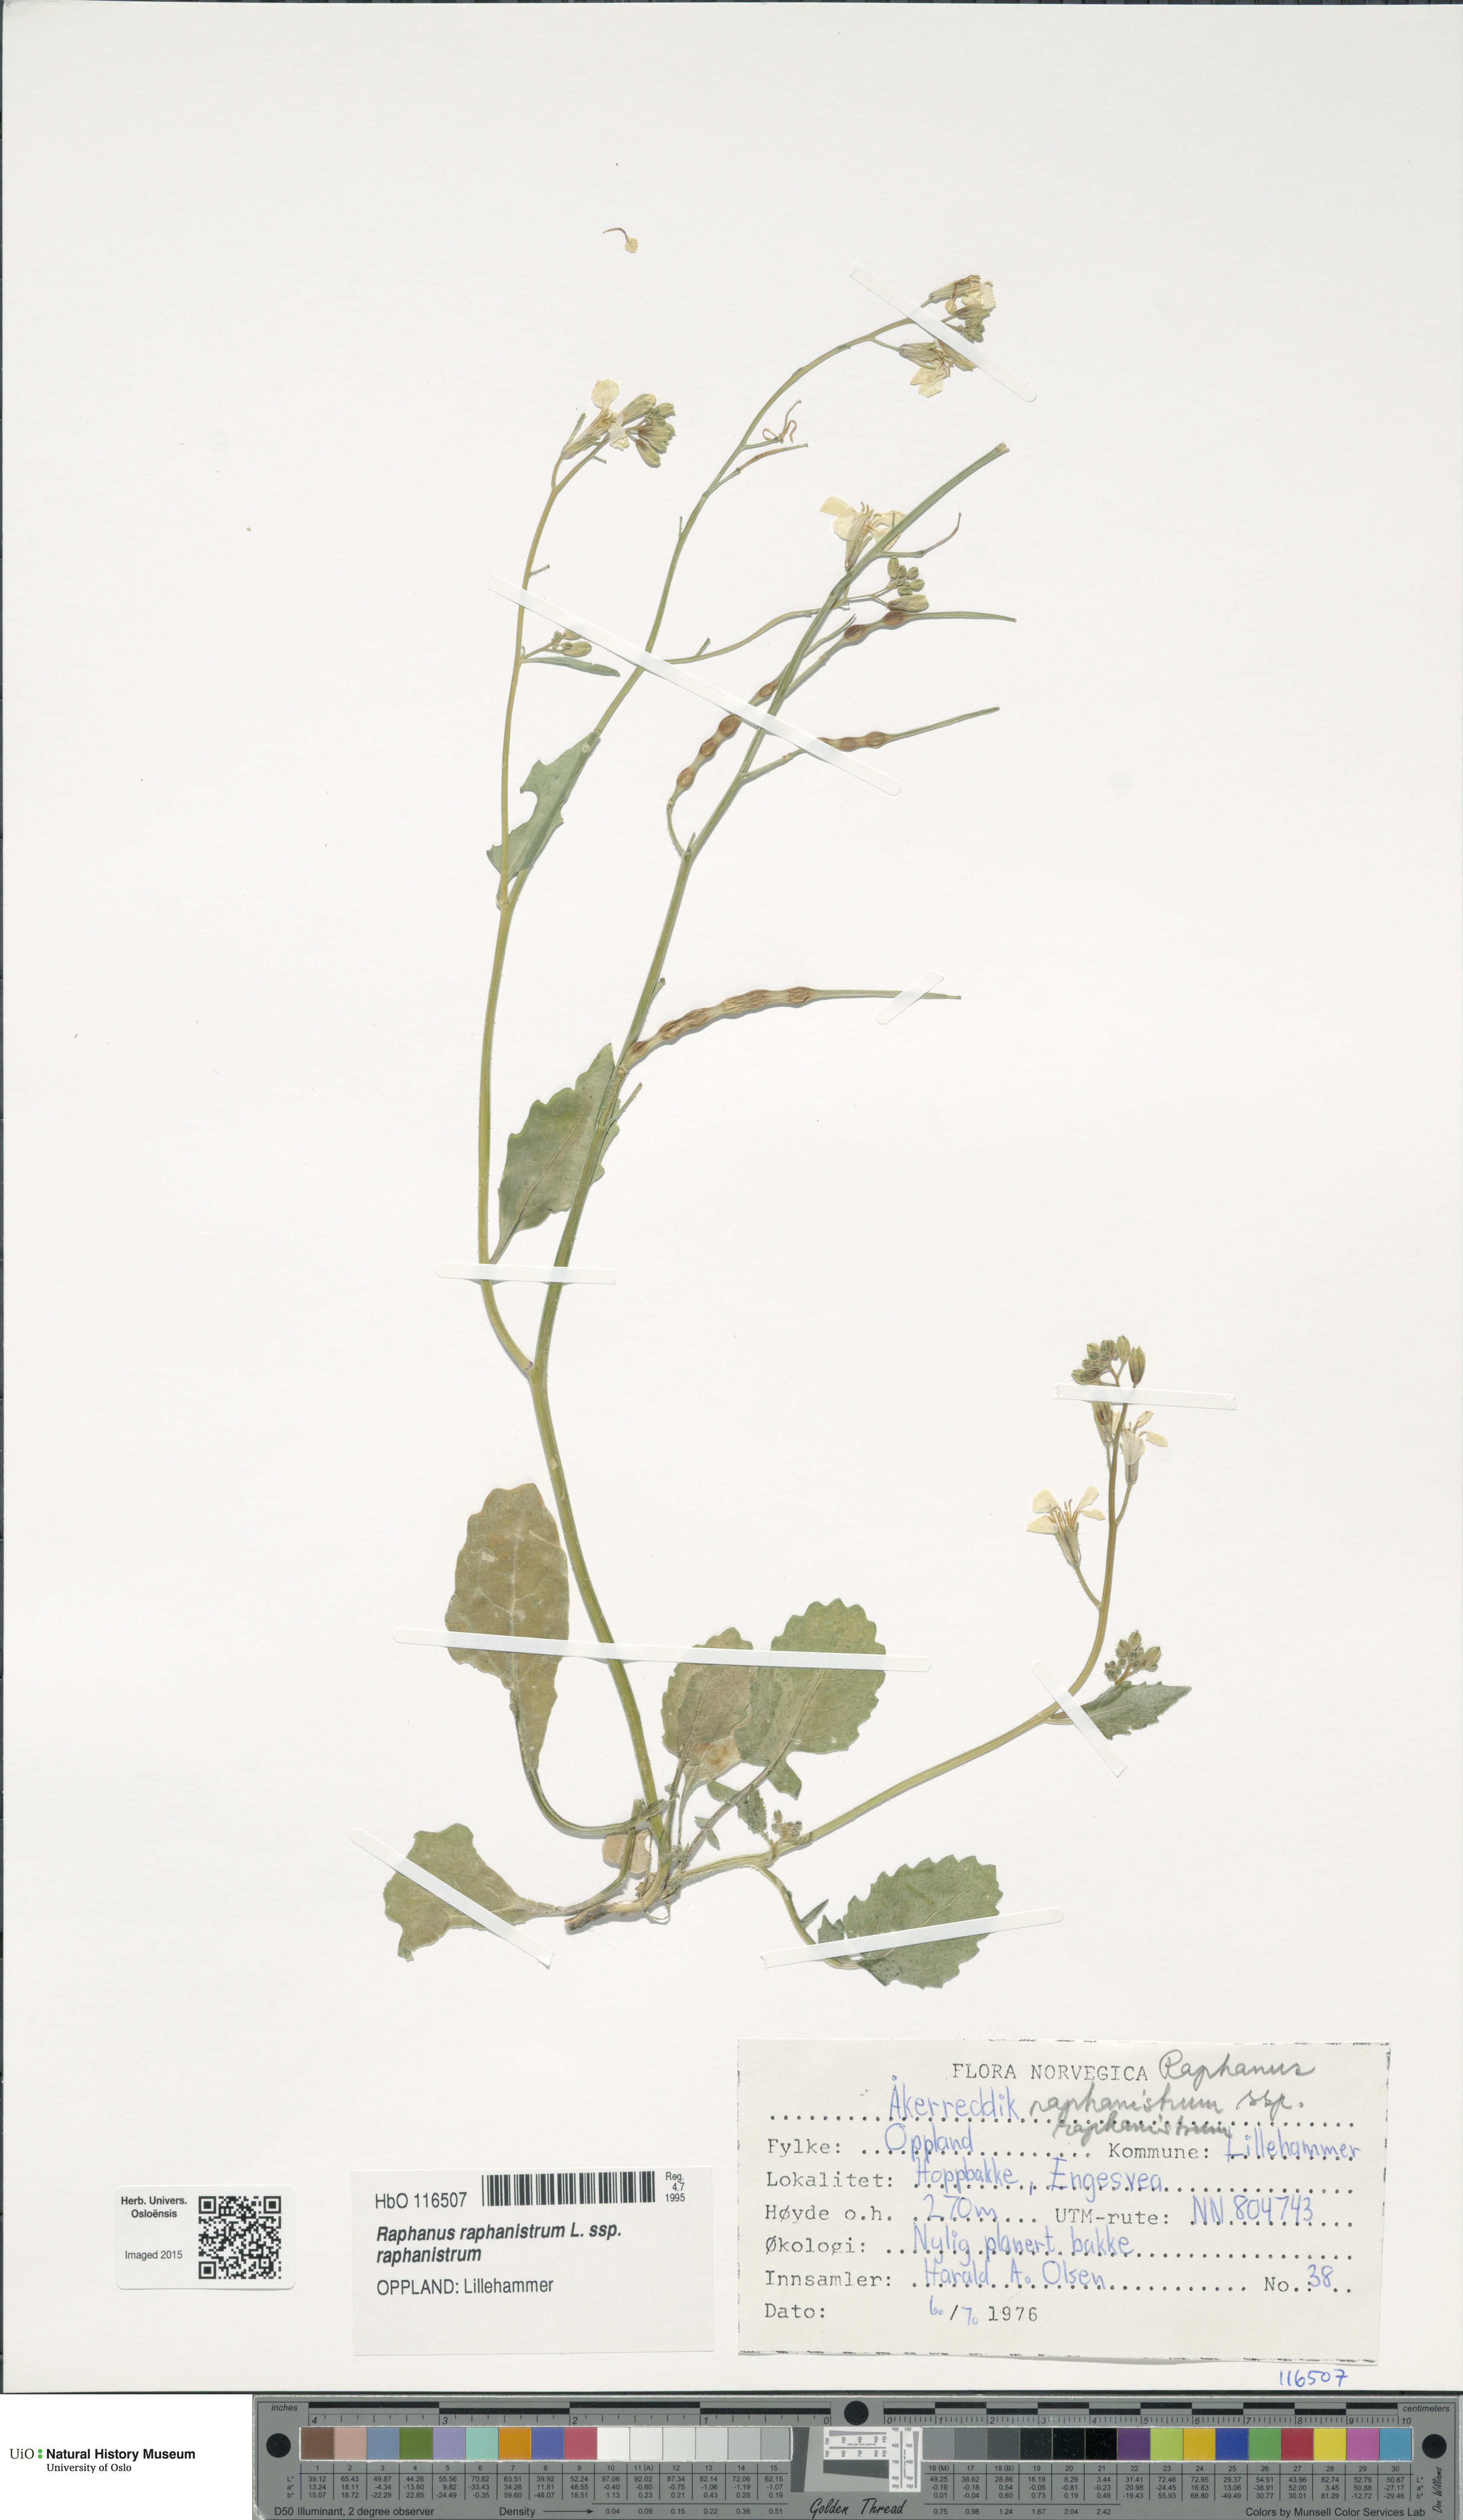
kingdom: Plantae
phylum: Tracheophyta
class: Magnoliopsida
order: Brassicales
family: Brassicaceae
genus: Raphanus
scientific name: Raphanus raphanistrum
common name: Wild radish
